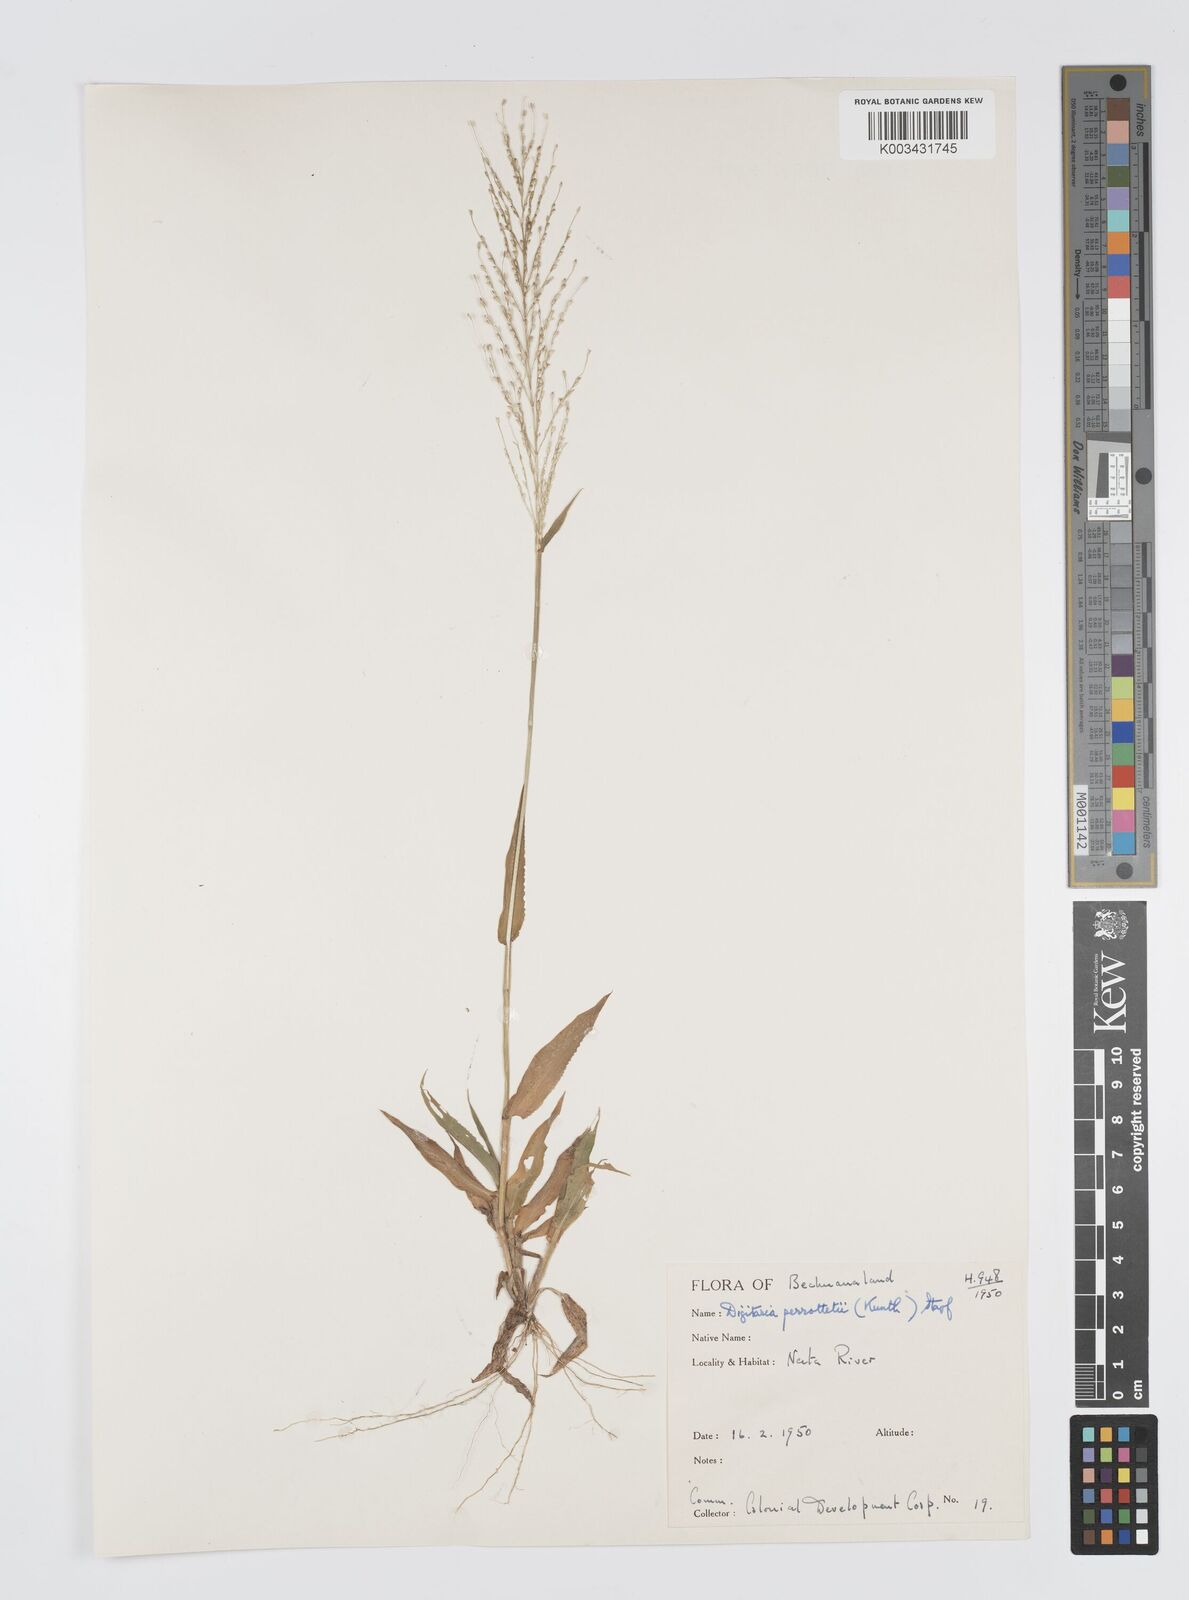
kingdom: Plantae
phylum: Tracheophyta
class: Liliopsida
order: Poales
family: Poaceae
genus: Digitaria
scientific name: Digitaria perrottetii
